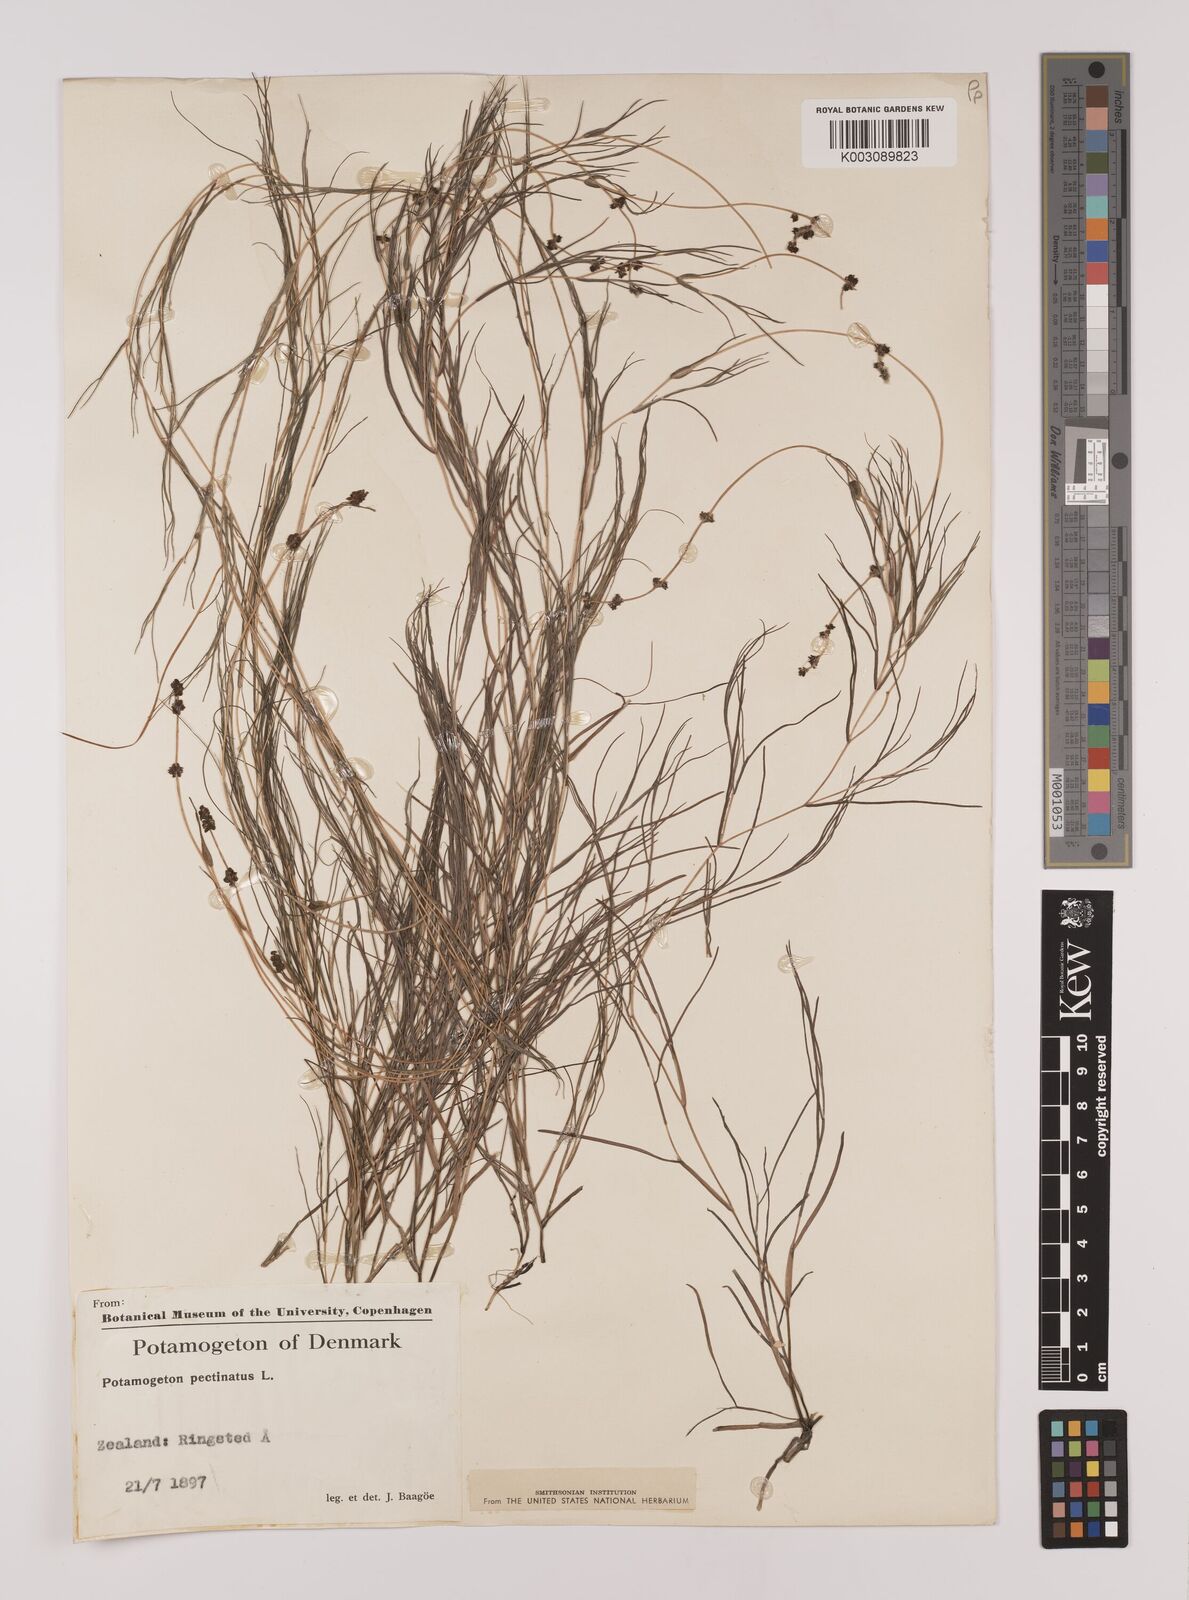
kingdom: Plantae
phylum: Tracheophyta
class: Liliopsida
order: Alismatales
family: Potamogetonaceae
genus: Stuckenia
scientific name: Stuckenia pectinata
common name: Sago pondweed
